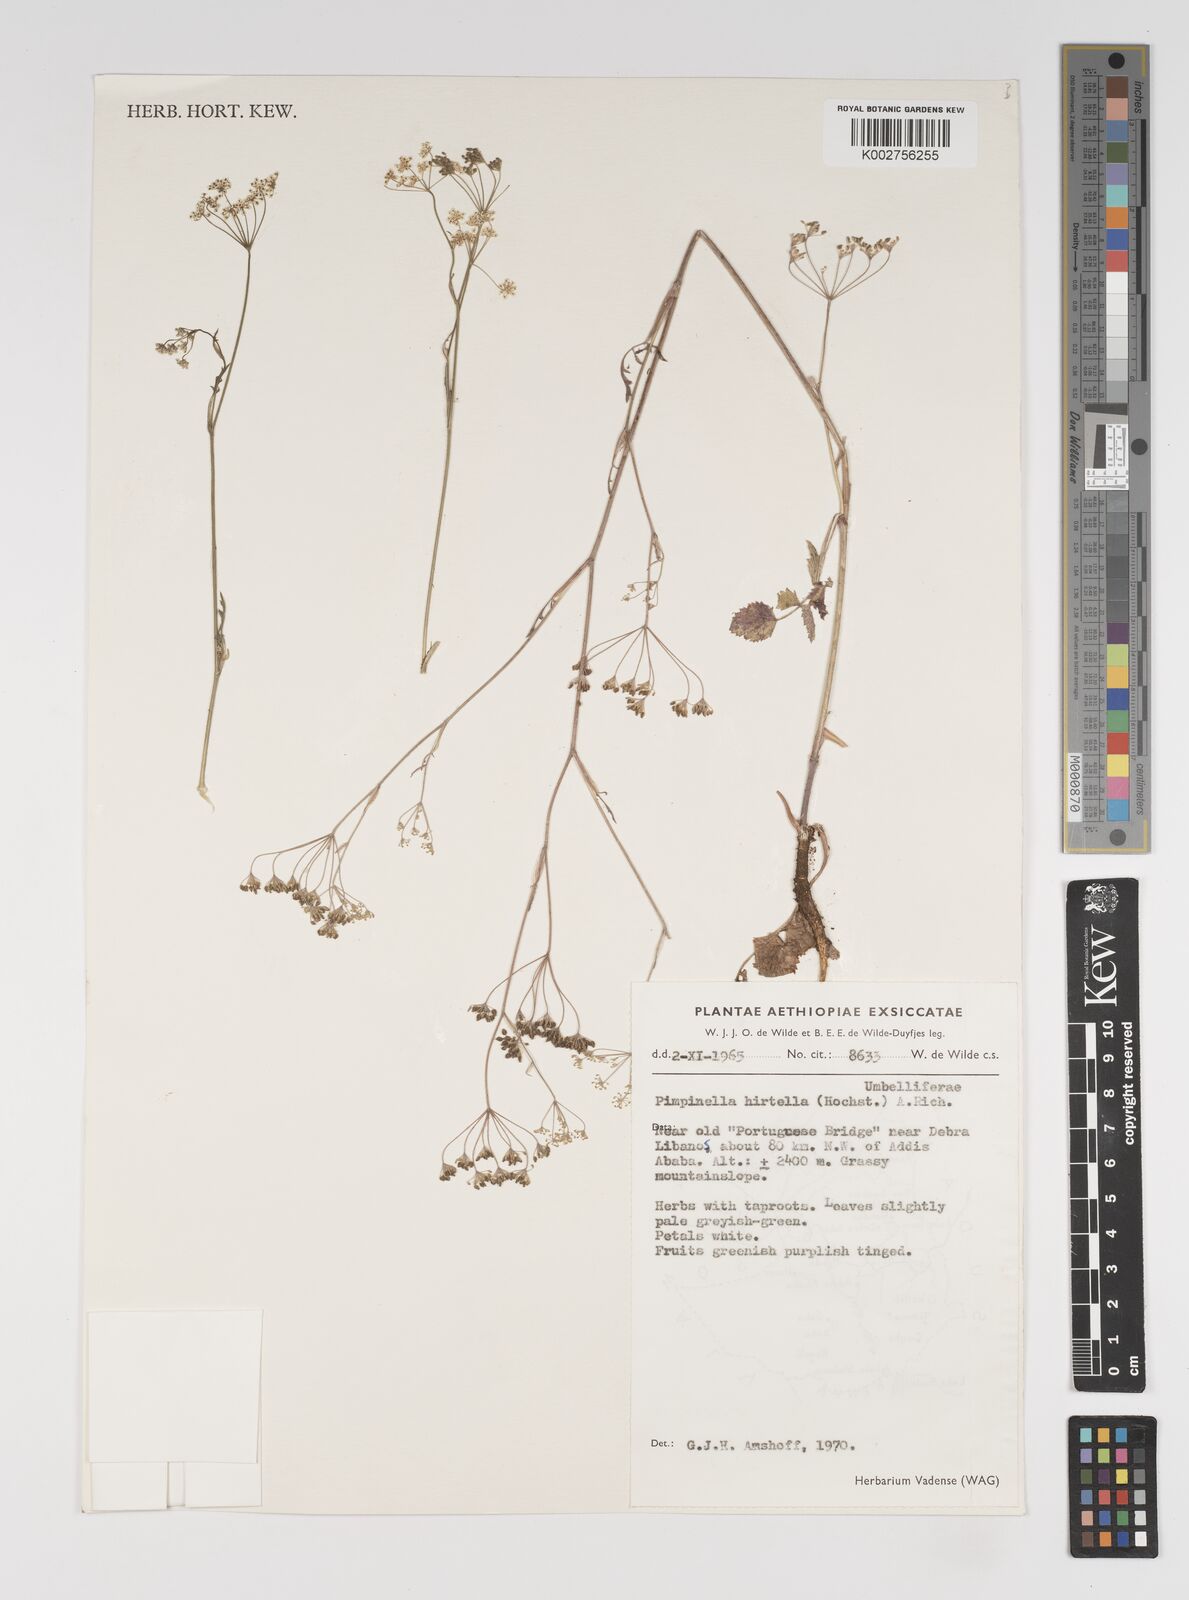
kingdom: Plantae
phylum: Tracheophyta
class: Magnoliopsida
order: Apiales
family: Apiaceae
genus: Pimpinella
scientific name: Pimpinella hirtella
